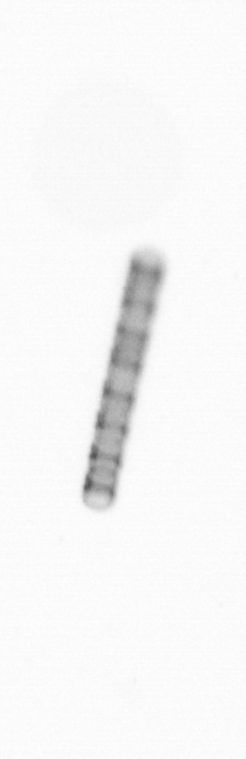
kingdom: Chromista
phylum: Ochrophyta
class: Bacillariophyceae
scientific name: Bacillariophyceae
